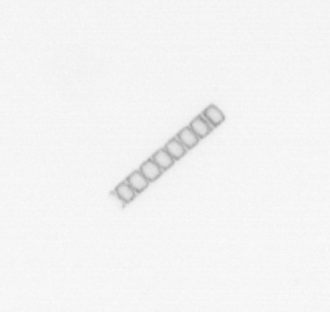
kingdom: Chromista
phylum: Ochrophyta
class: Bacillariophyceae
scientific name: Bacillariophyceae
